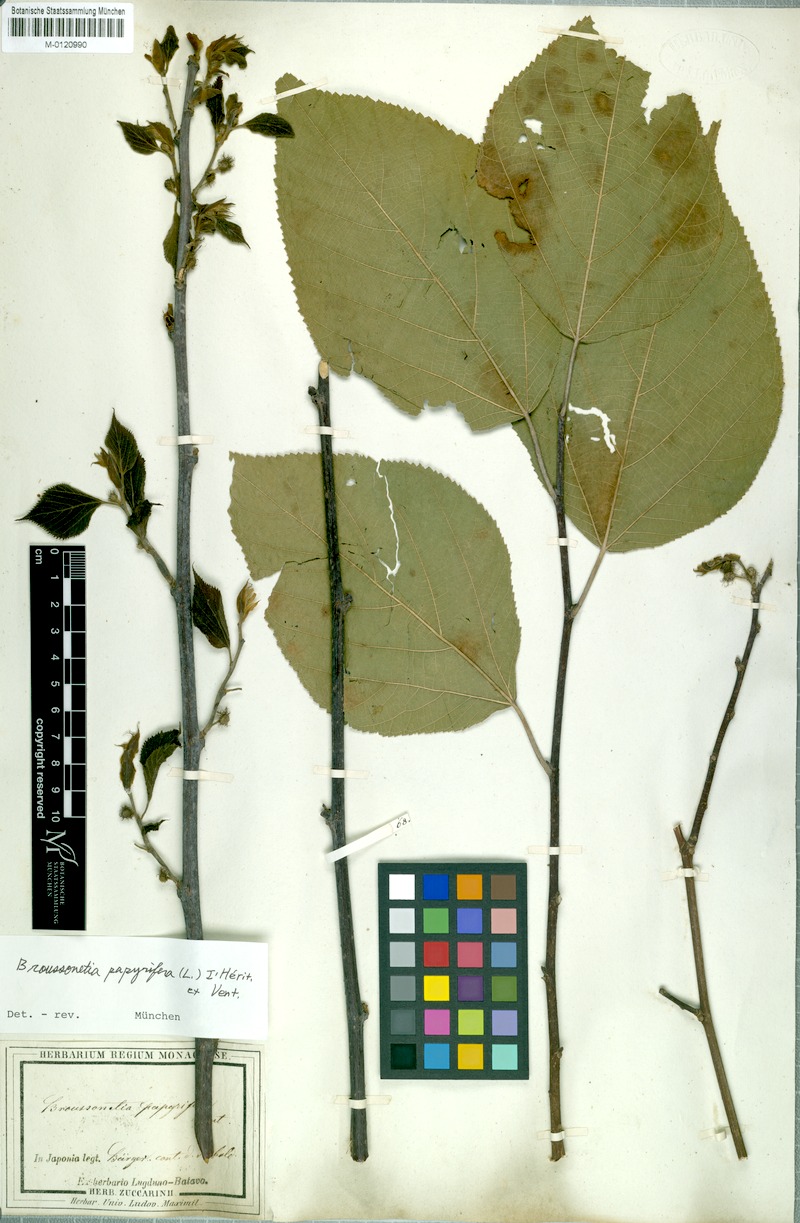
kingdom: Plantae
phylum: Tracheophyta
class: Magnoliopsida
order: Rosales
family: Moraceae
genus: Broussonetia
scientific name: Broussonetia papyrifera
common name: Paper mulberry
